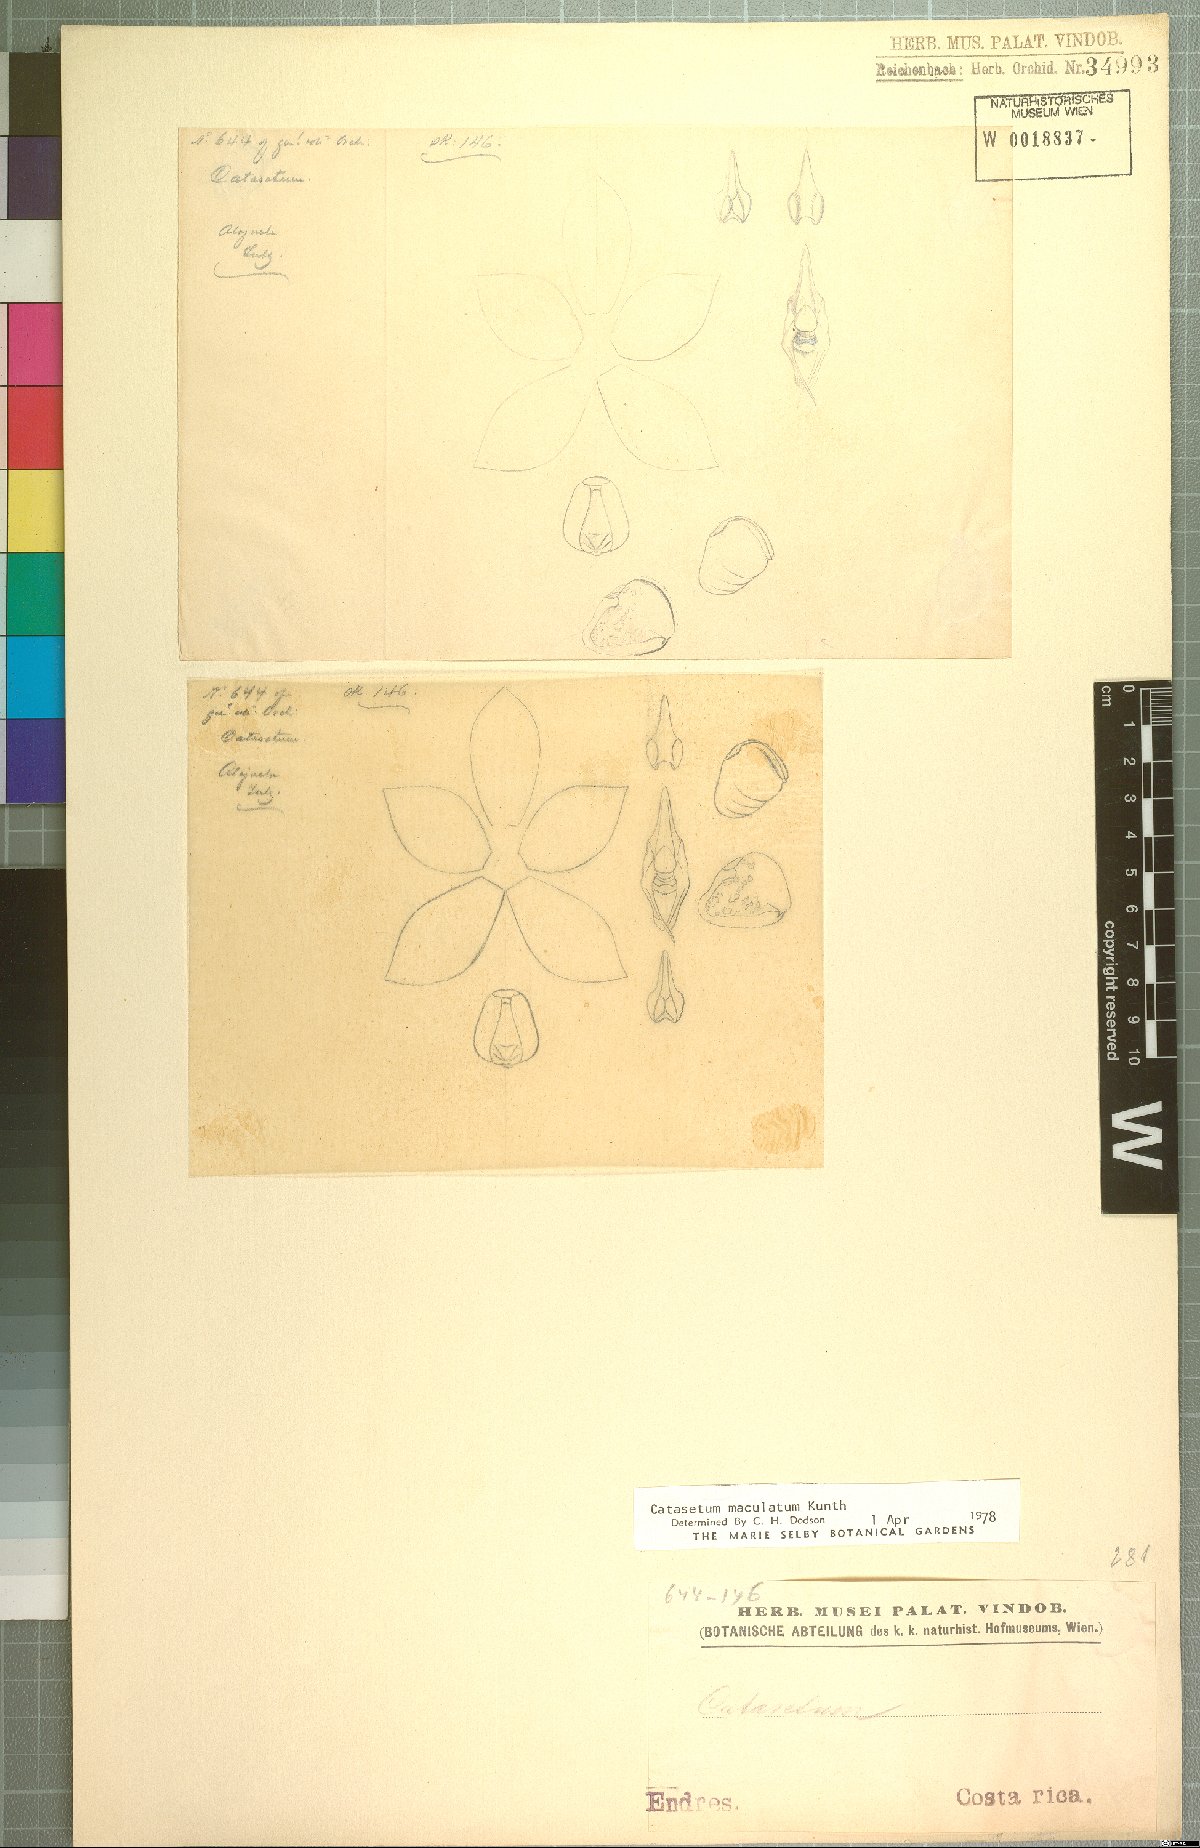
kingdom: Plantae
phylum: Tracheophyta
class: Liliopsida
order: Asparagales
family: Orchidaceae
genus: Catasetum
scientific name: Catasetum maculatum
